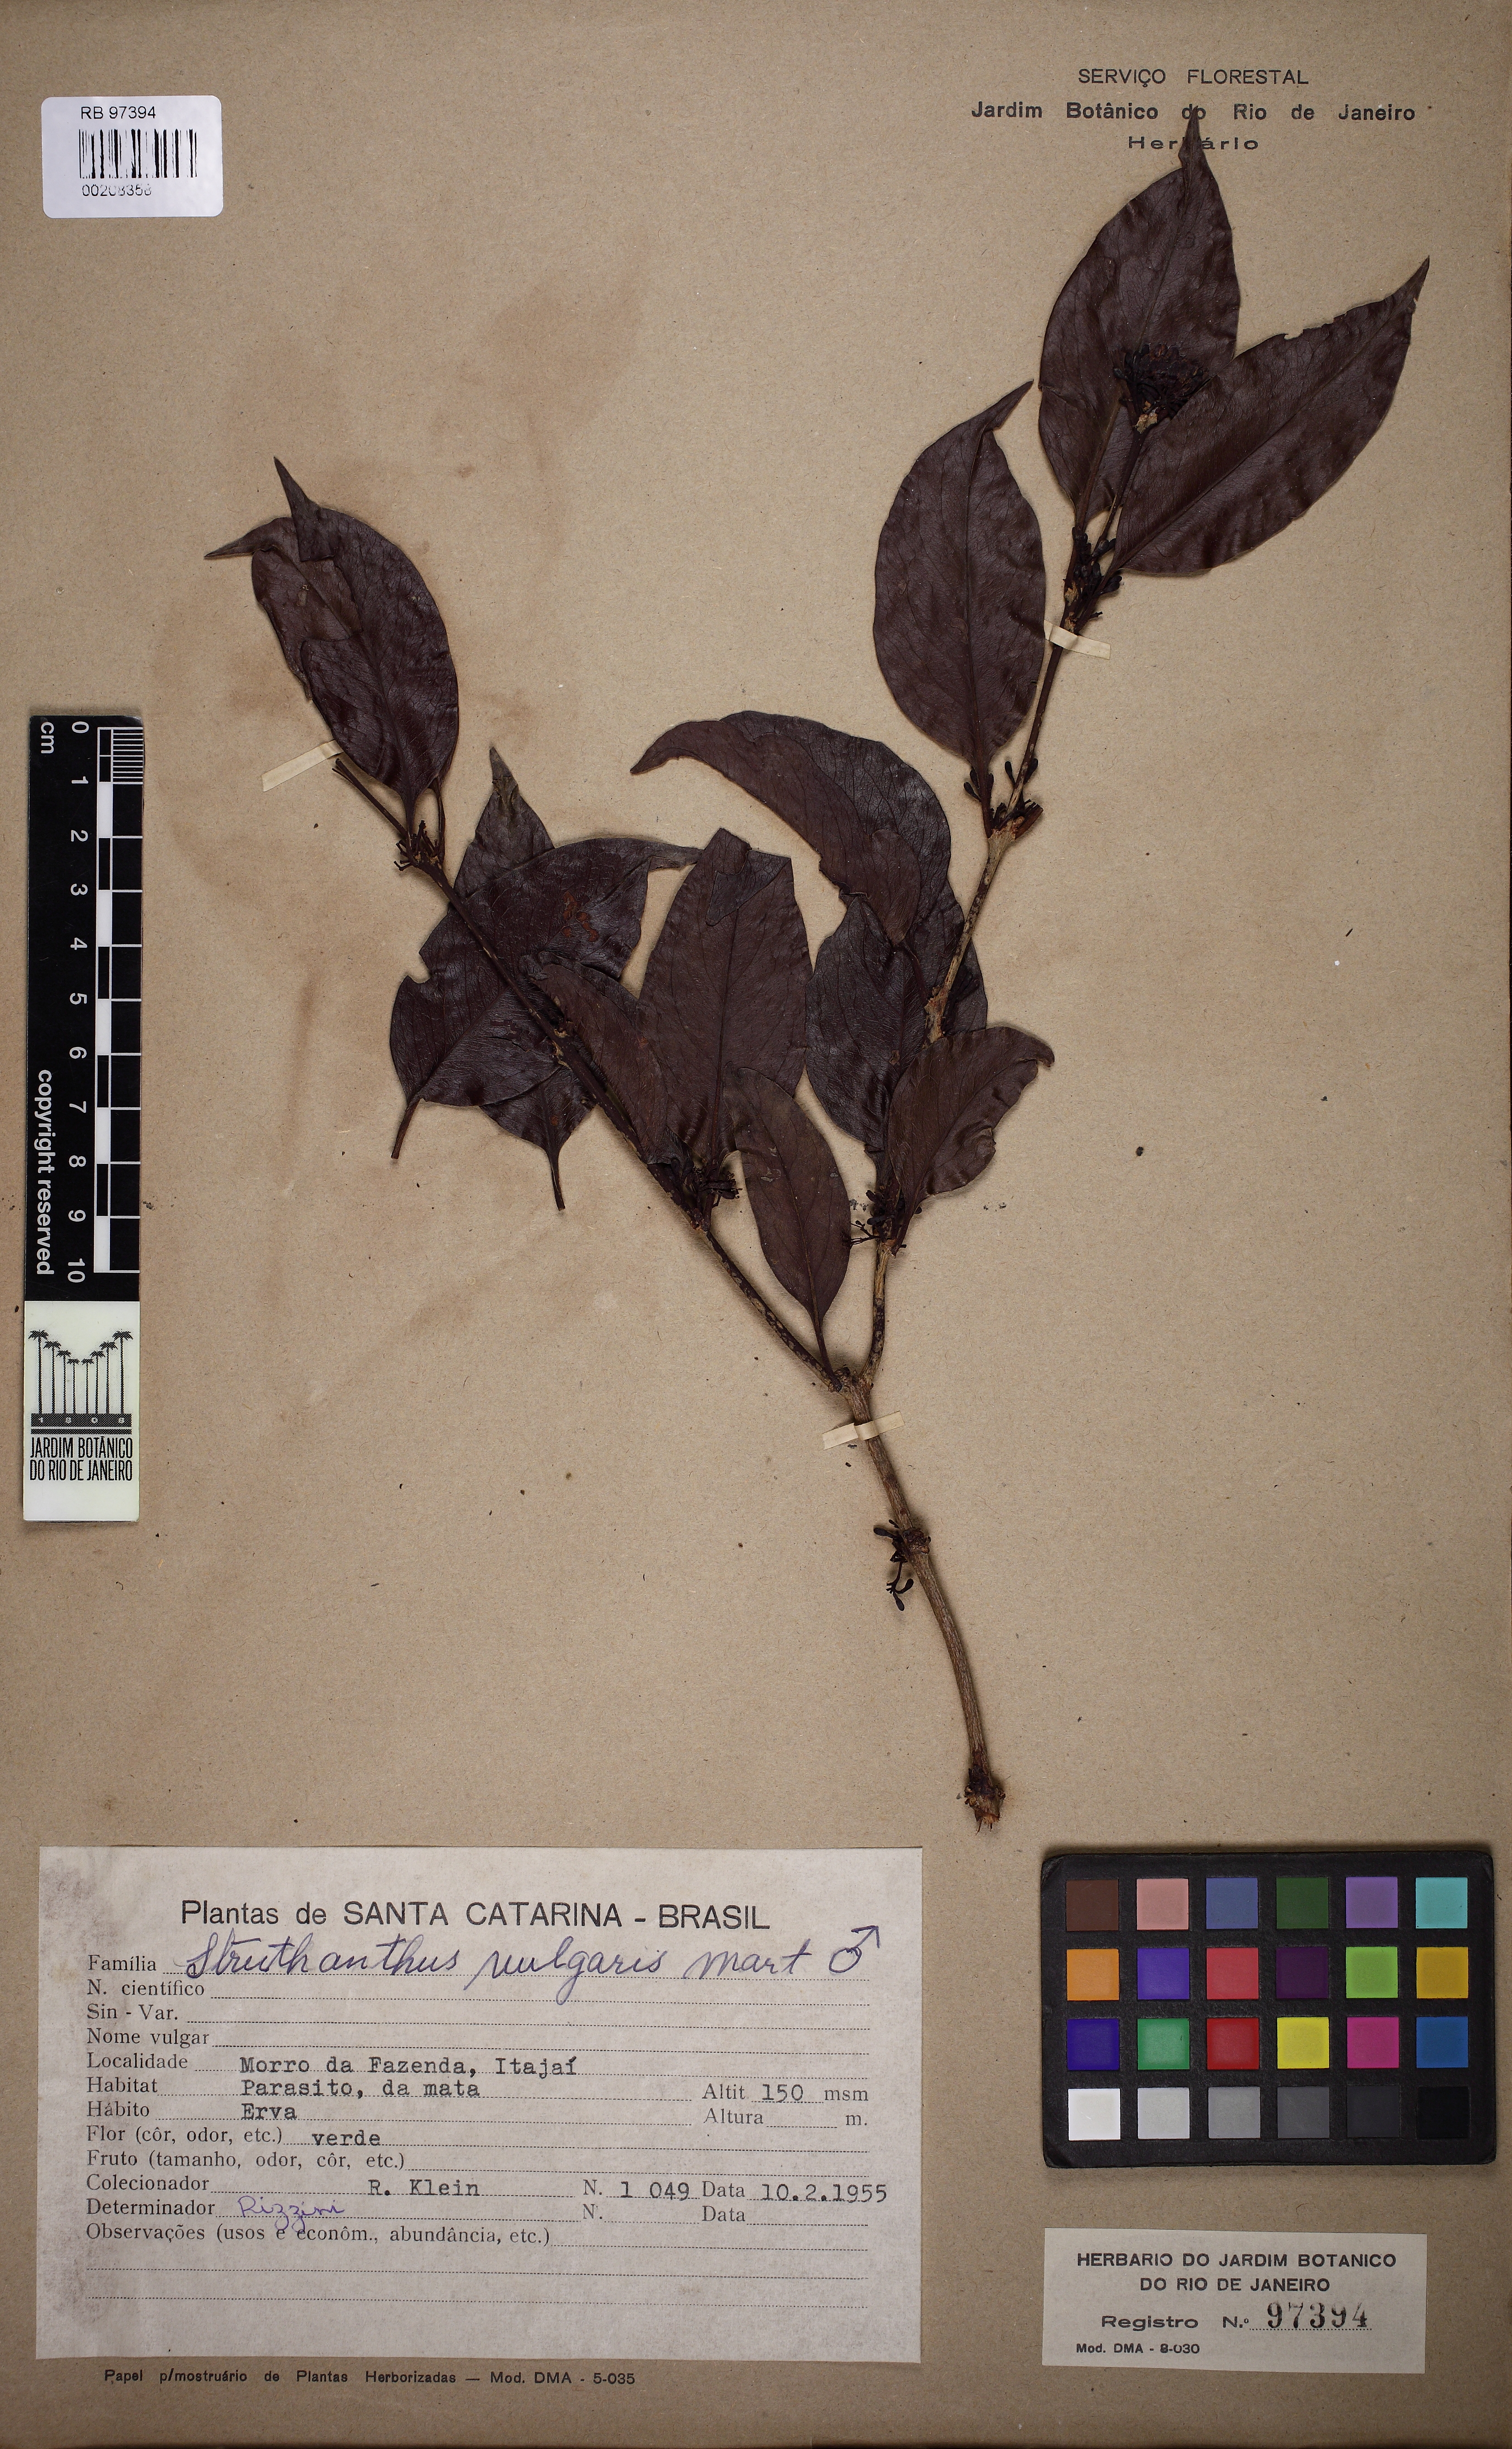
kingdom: Plantae
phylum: Tracheophyta
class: Magnoliopsida
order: Santalales
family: Loranthaceae
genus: Struthanthus
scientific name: Struthanthus marginatus
